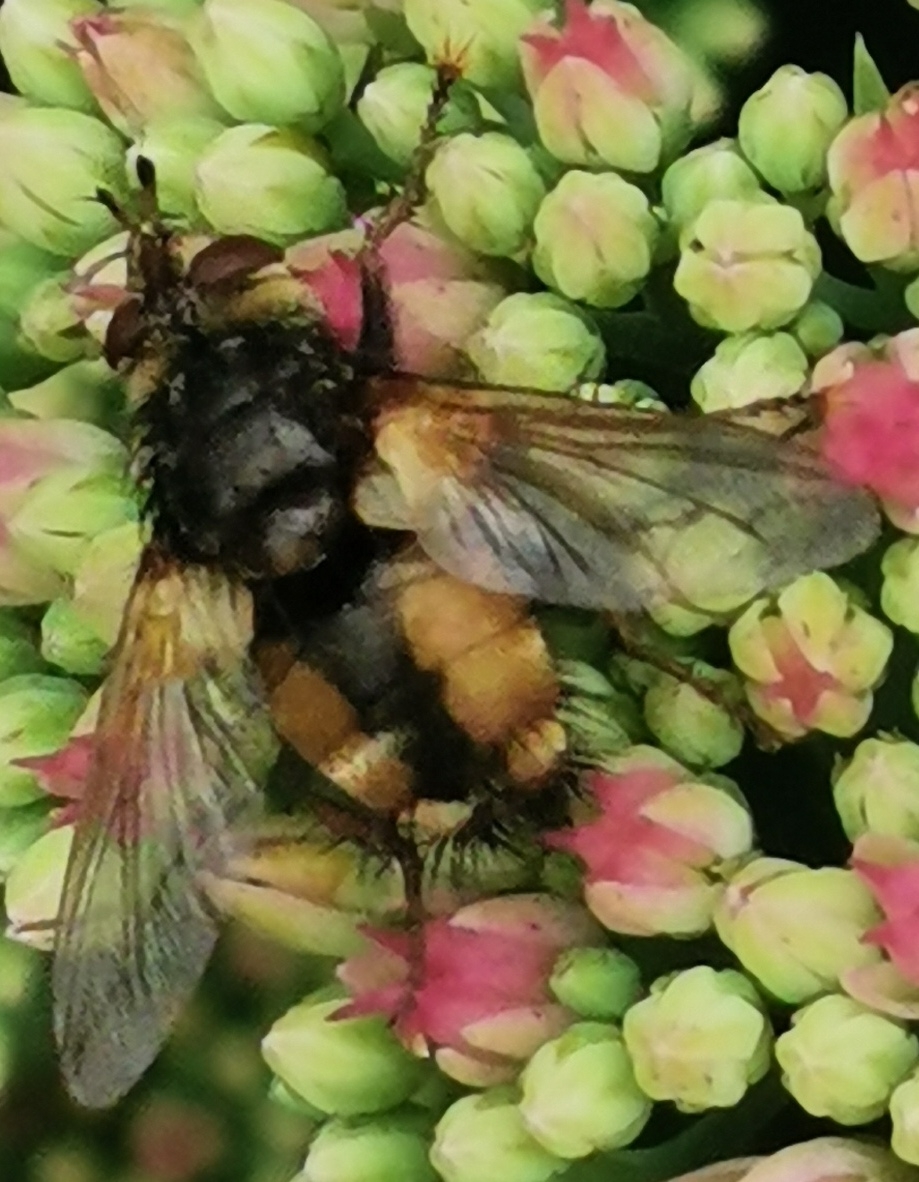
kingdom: Animalia
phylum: Arthropoda
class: Insecta
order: Diptera
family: Tachinidae
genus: Tachina
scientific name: Tachina fera
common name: Mellemfluen oskar
